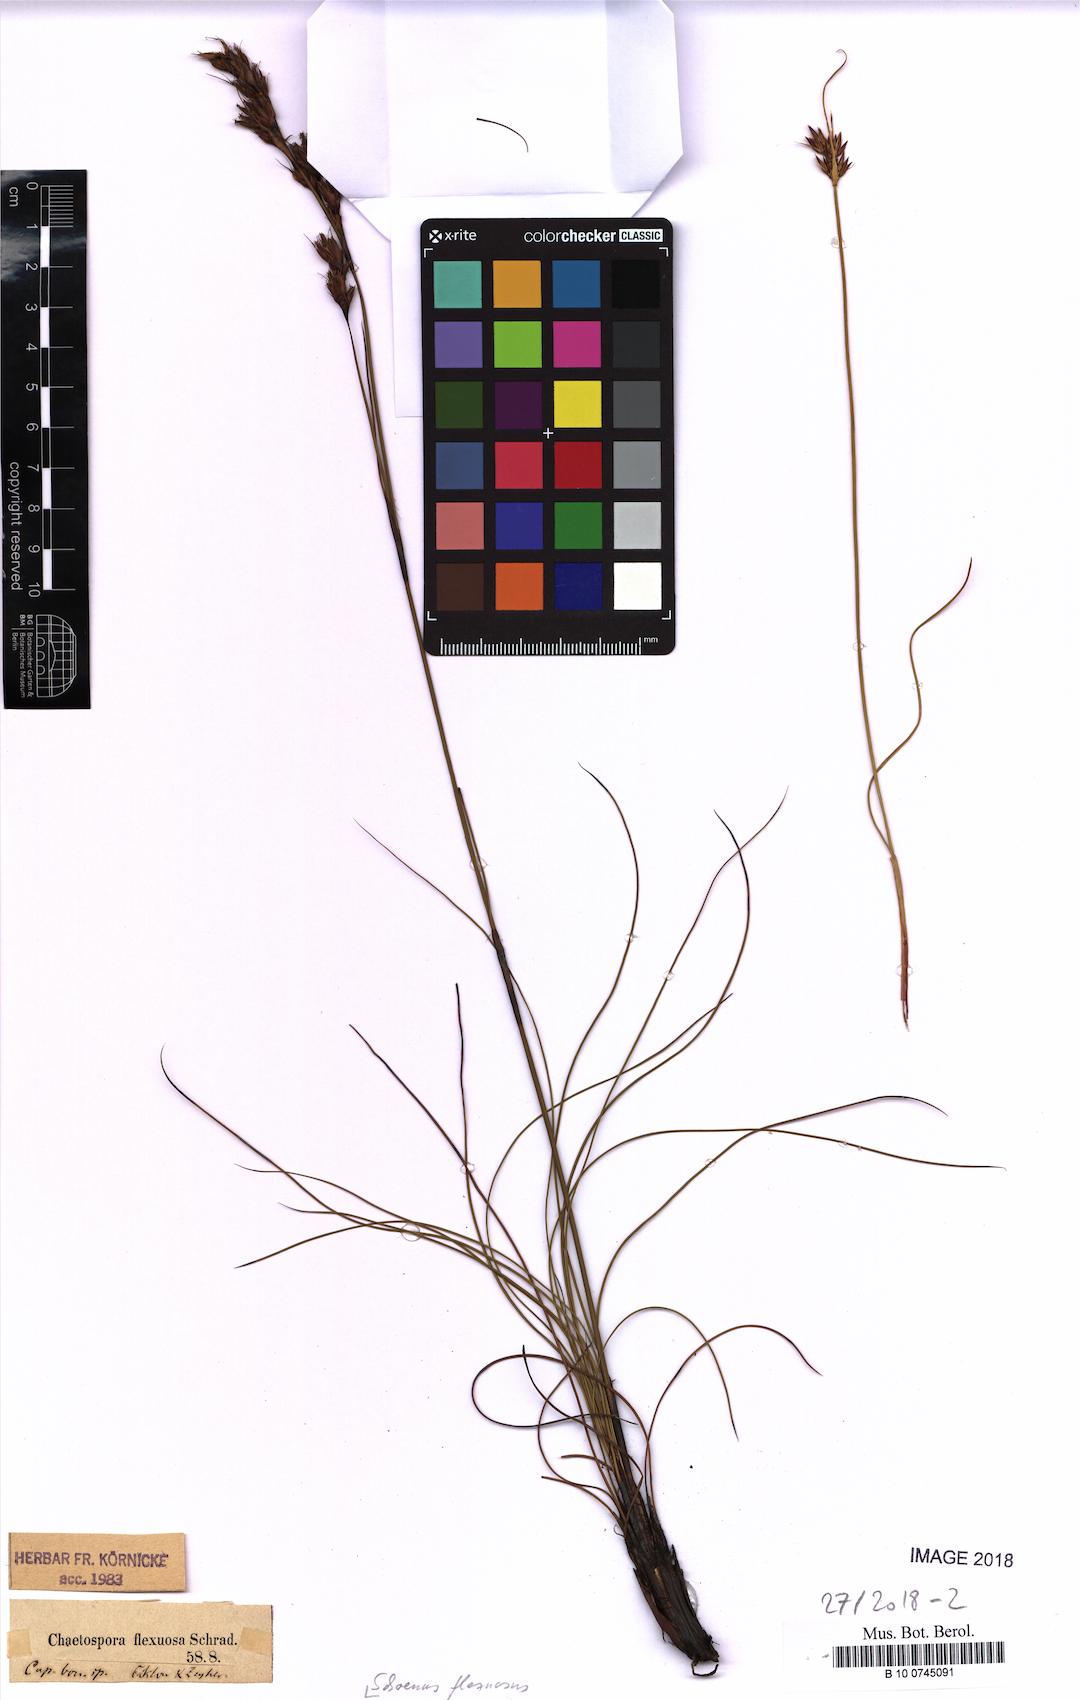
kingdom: Plantae
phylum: Tracheophyta
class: Liliopsida
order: Poales
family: Cyperaceae
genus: Tetraria
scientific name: Tetraria flexuosa
